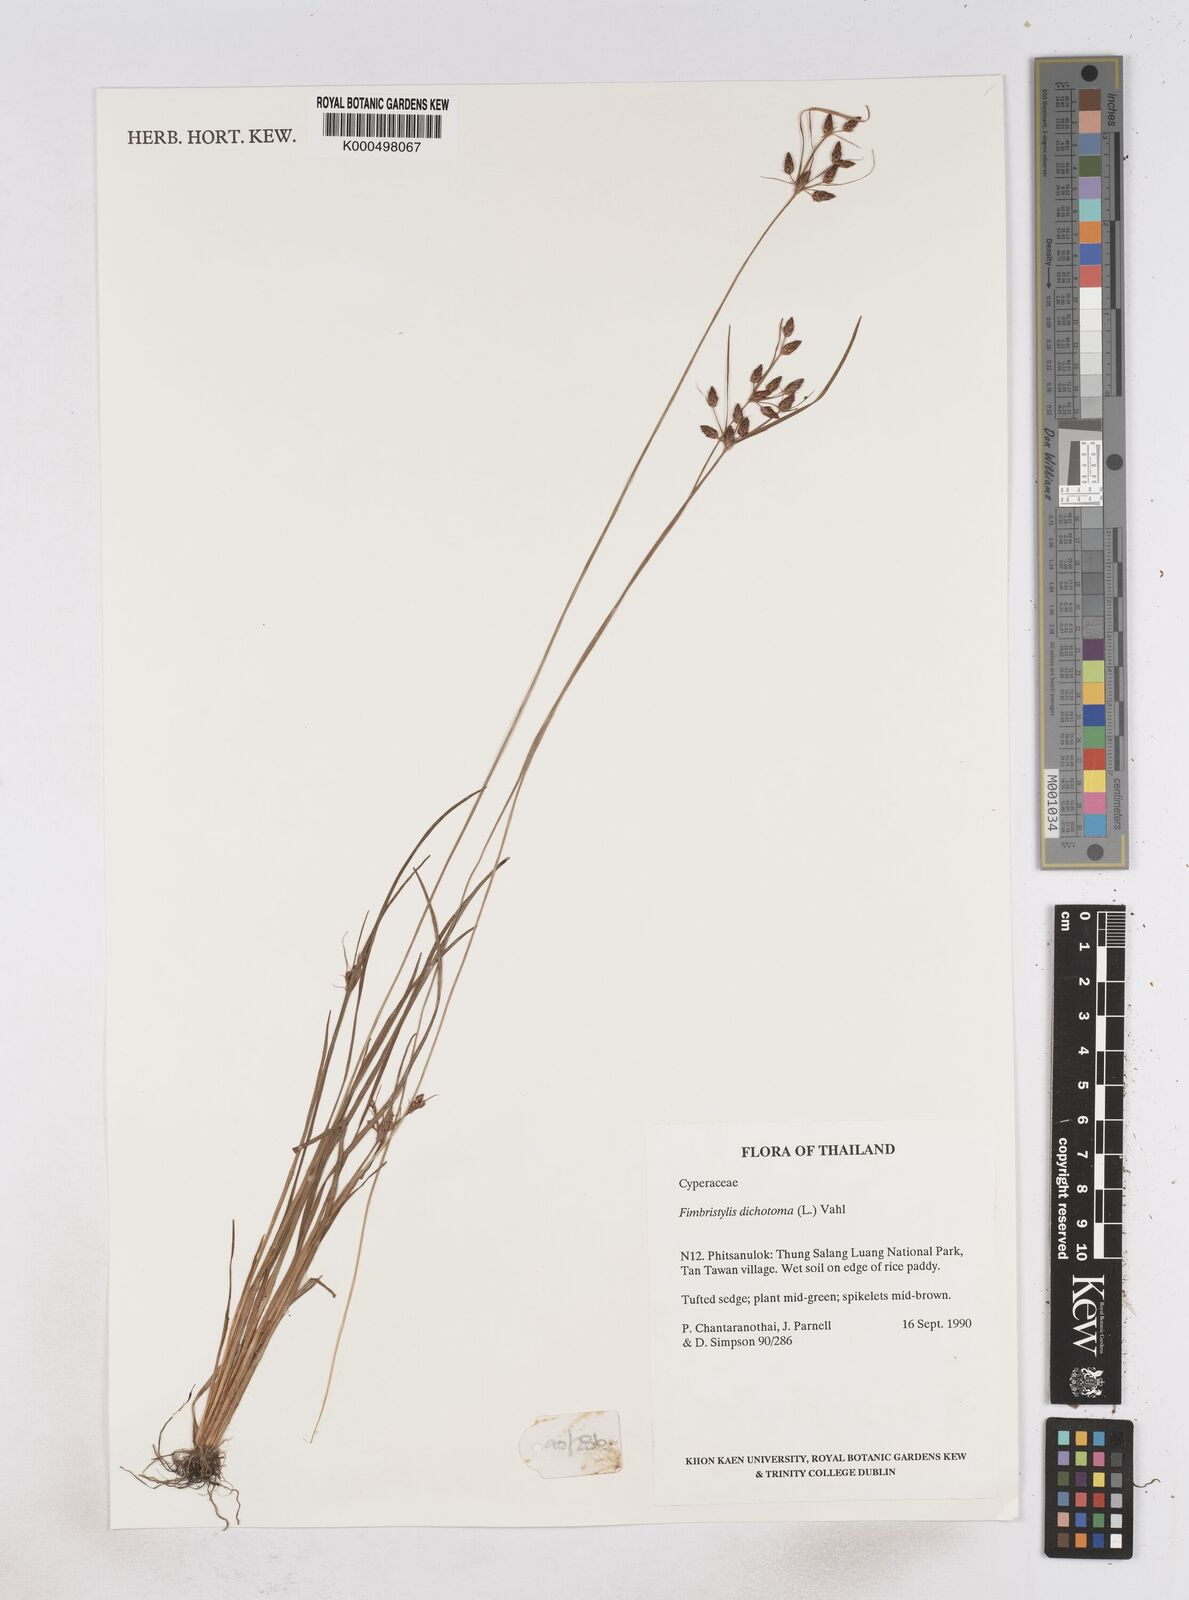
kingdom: Plantae
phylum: Tracheophyta
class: Liliopsida
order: Poales
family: Cyperaceae
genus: Fimbristylis
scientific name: Fimbristylis dichotoma
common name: Forked fimbry
